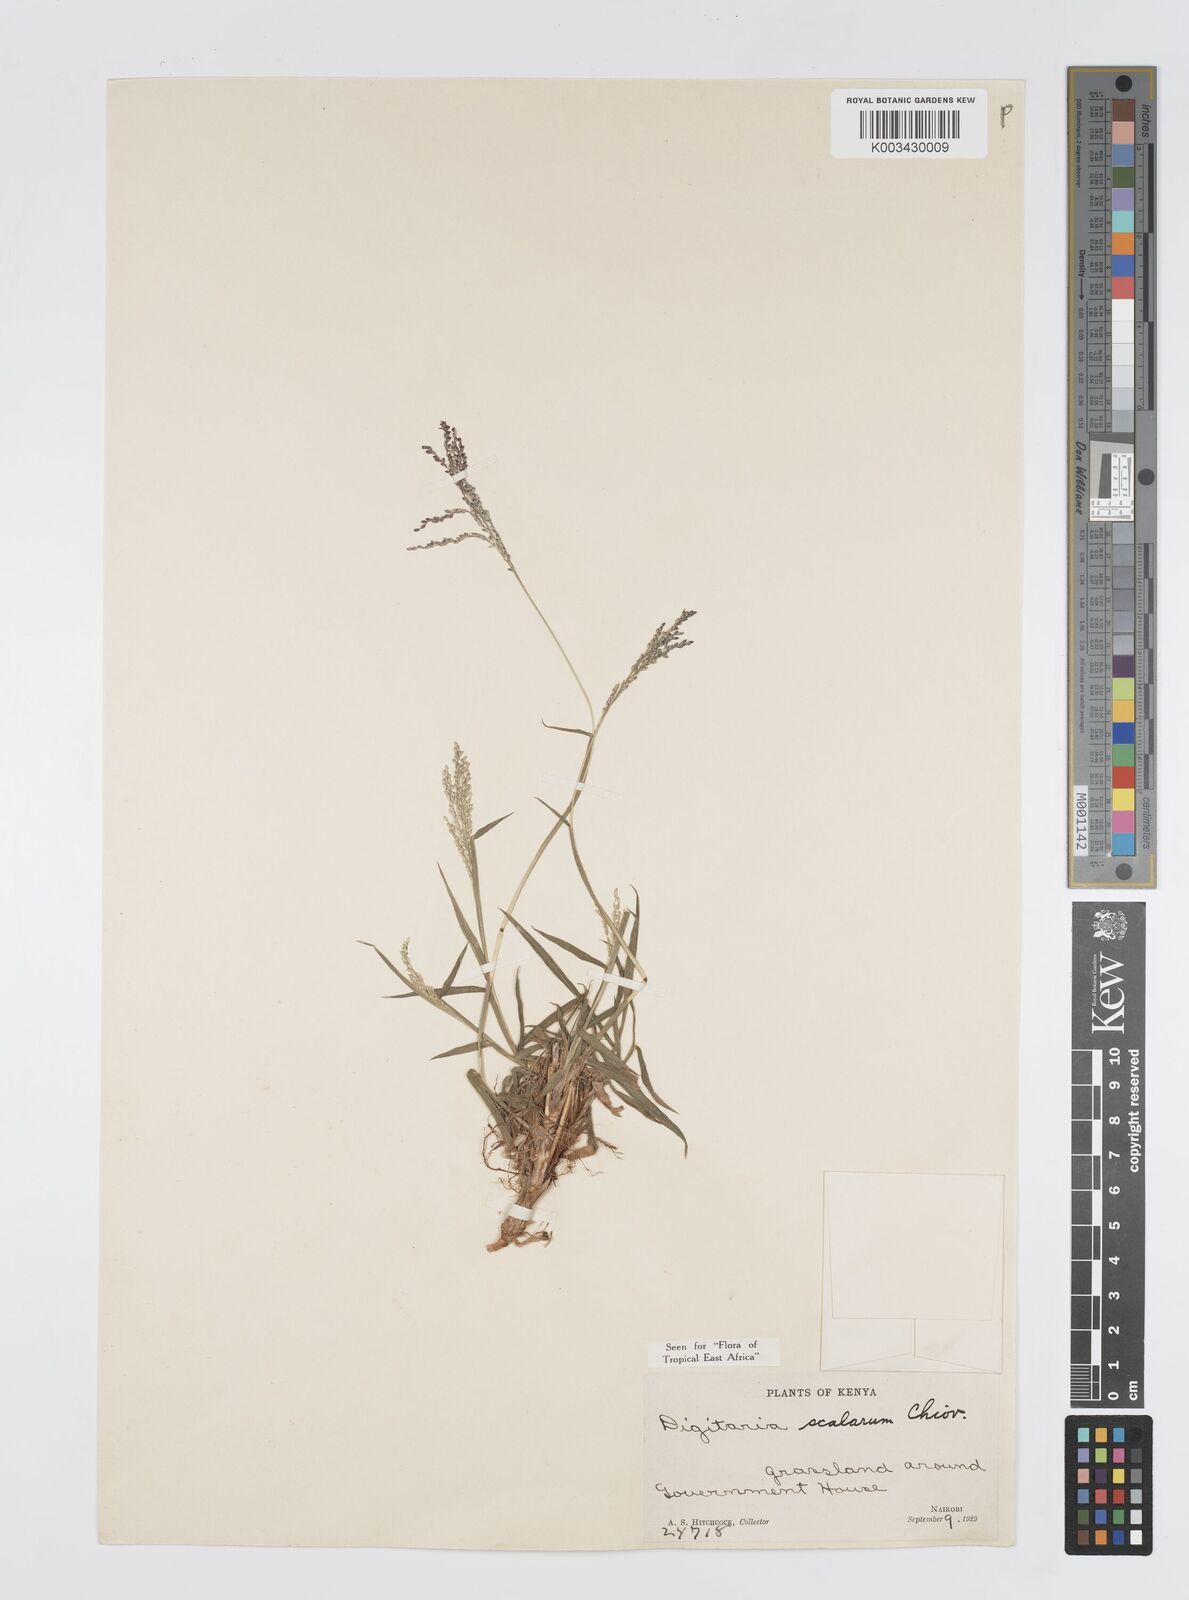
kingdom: Plantae
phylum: Tracheophyta
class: Liliopsida
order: Poales
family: Poaceae
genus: Digitaria
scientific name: Digitaria abyssinica
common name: African couchgrass
